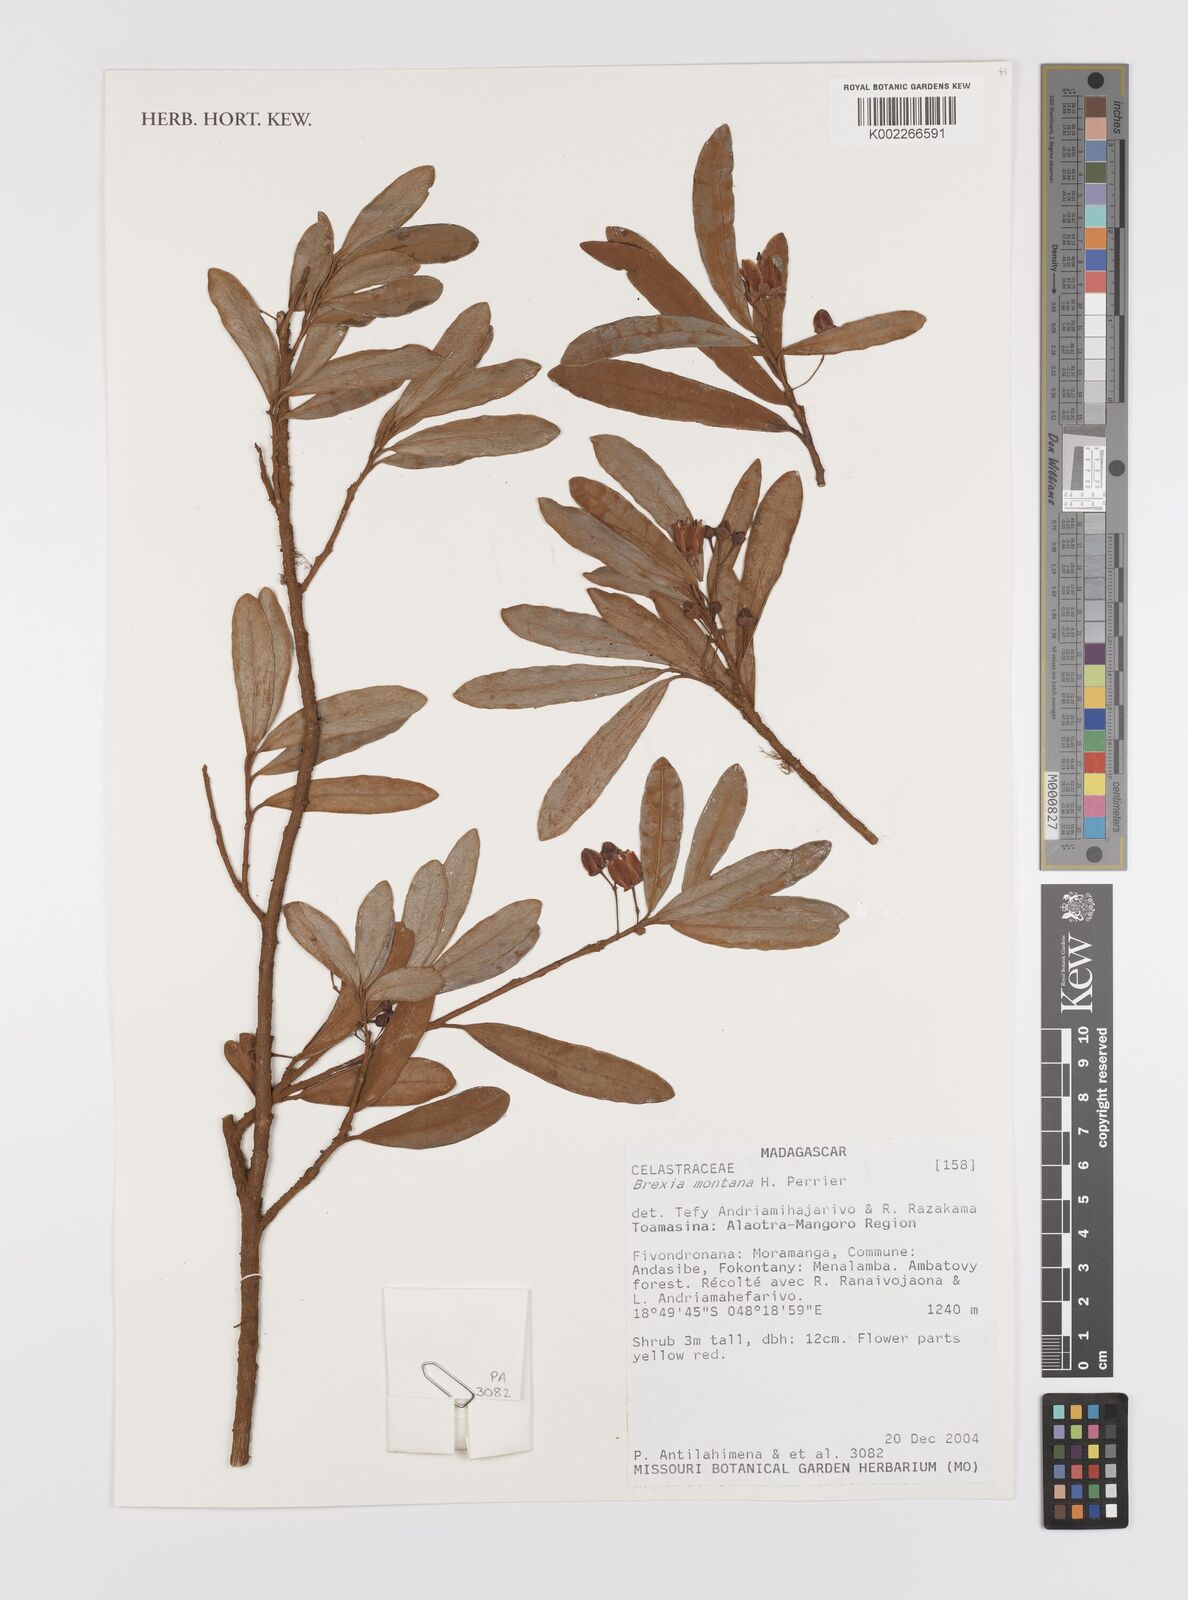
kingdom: Plantae
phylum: Tracheophyta
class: Magnoliopsida
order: Celastrales
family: Celastraceae
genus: Brexia
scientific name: Brexia montana
